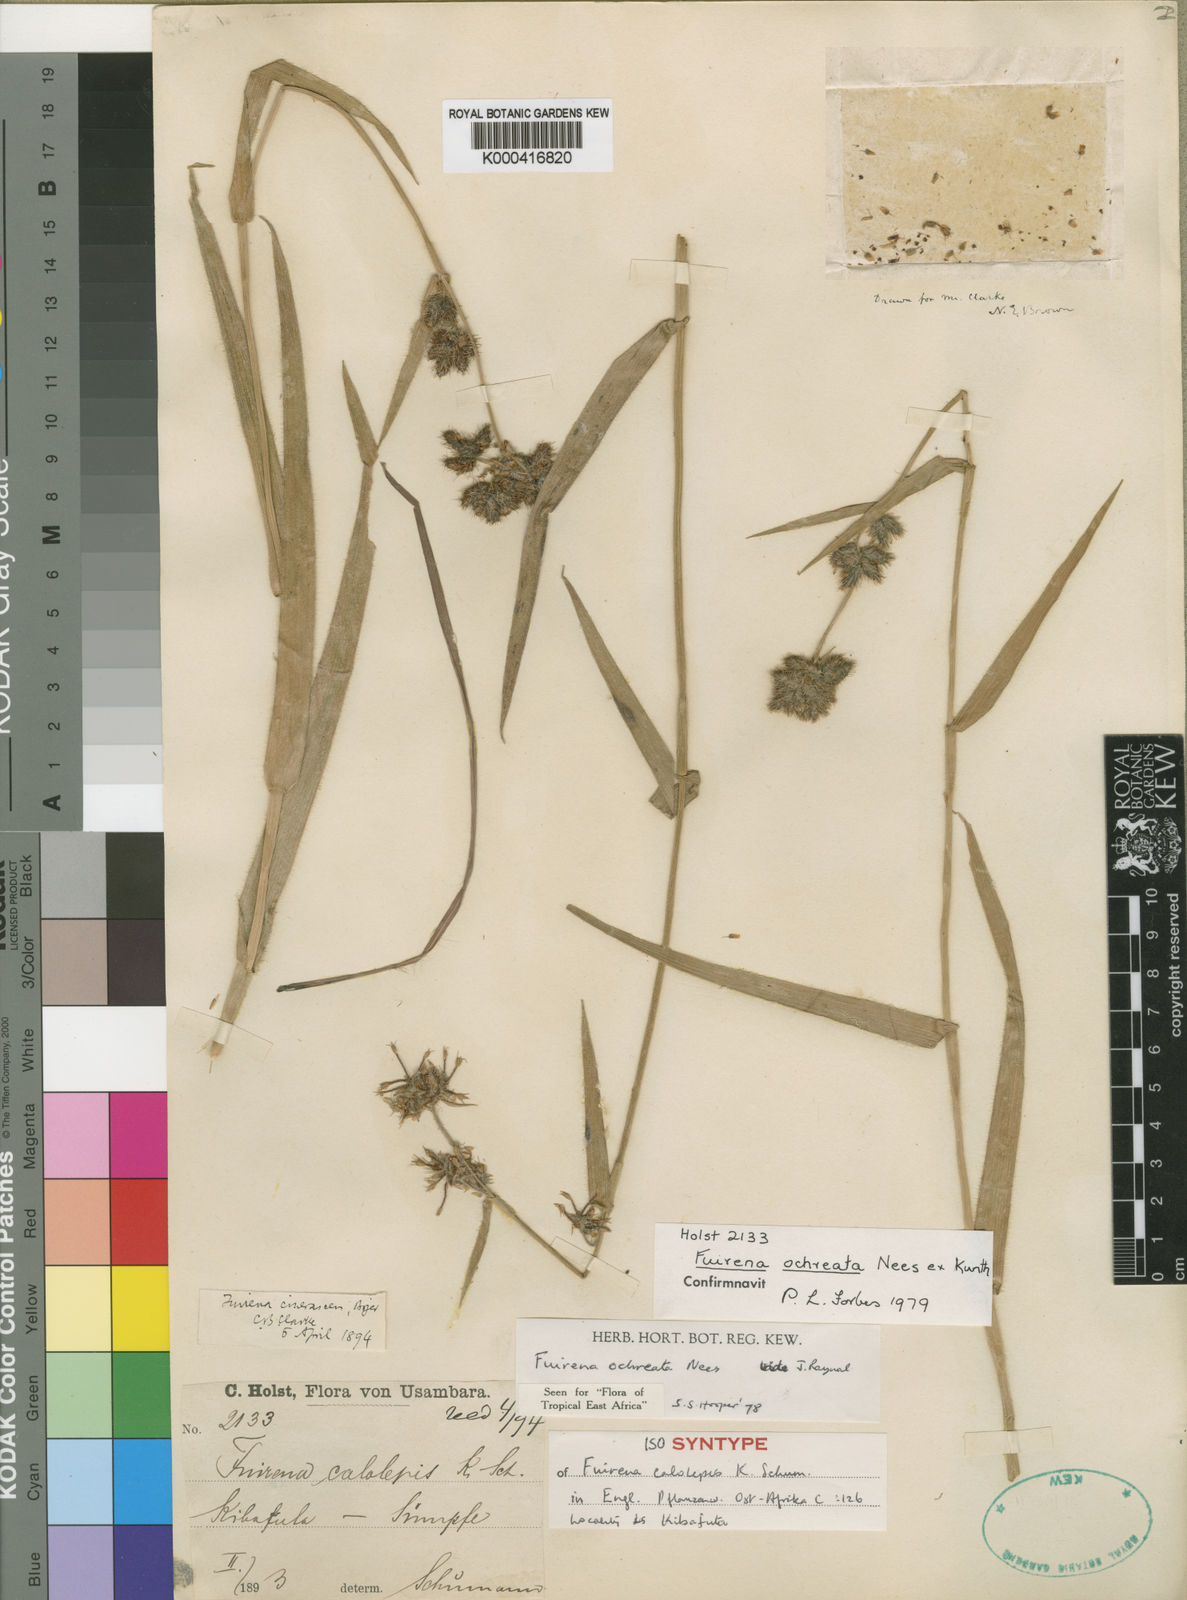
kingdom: Plantae
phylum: Tracheophyta
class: Liliopsida
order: Poales
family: Cyperaceae
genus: Fuirena
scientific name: Fuirena ochreata
